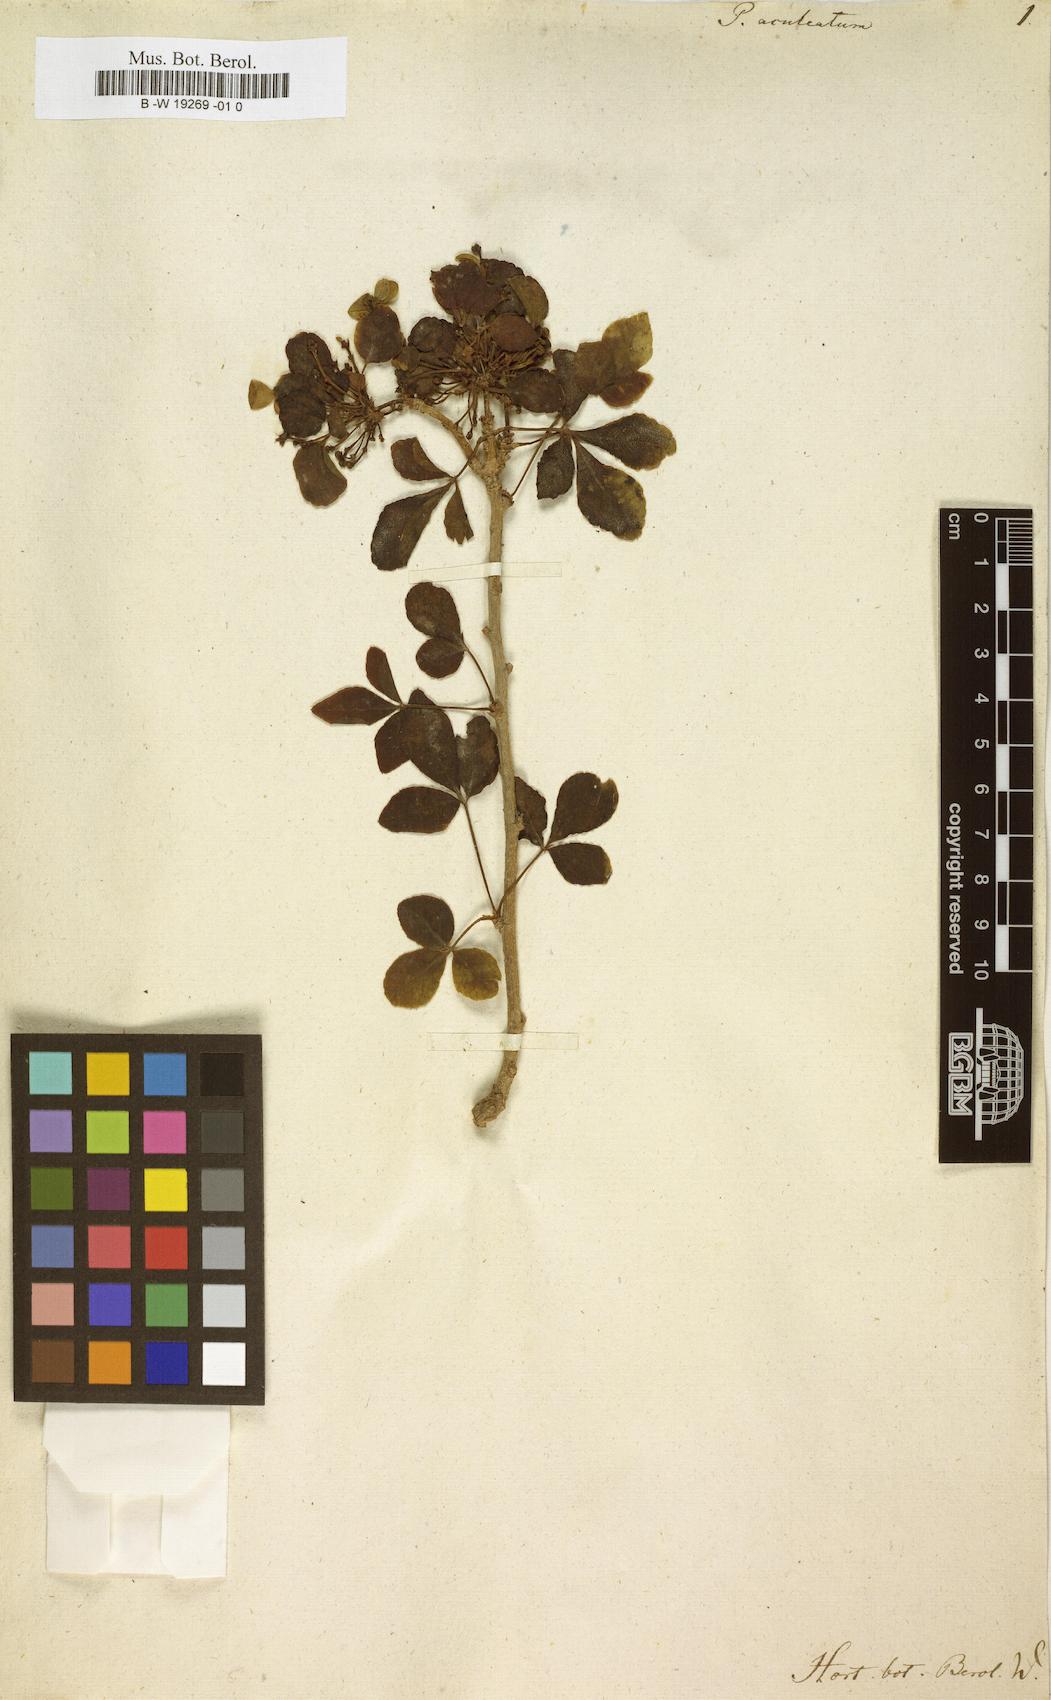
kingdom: Plantae
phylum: Tracheophyta
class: Magnoliopsida
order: Apiales
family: Araliaceae
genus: Eleutherococcus
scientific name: Eleutherococcus trifoliatus
